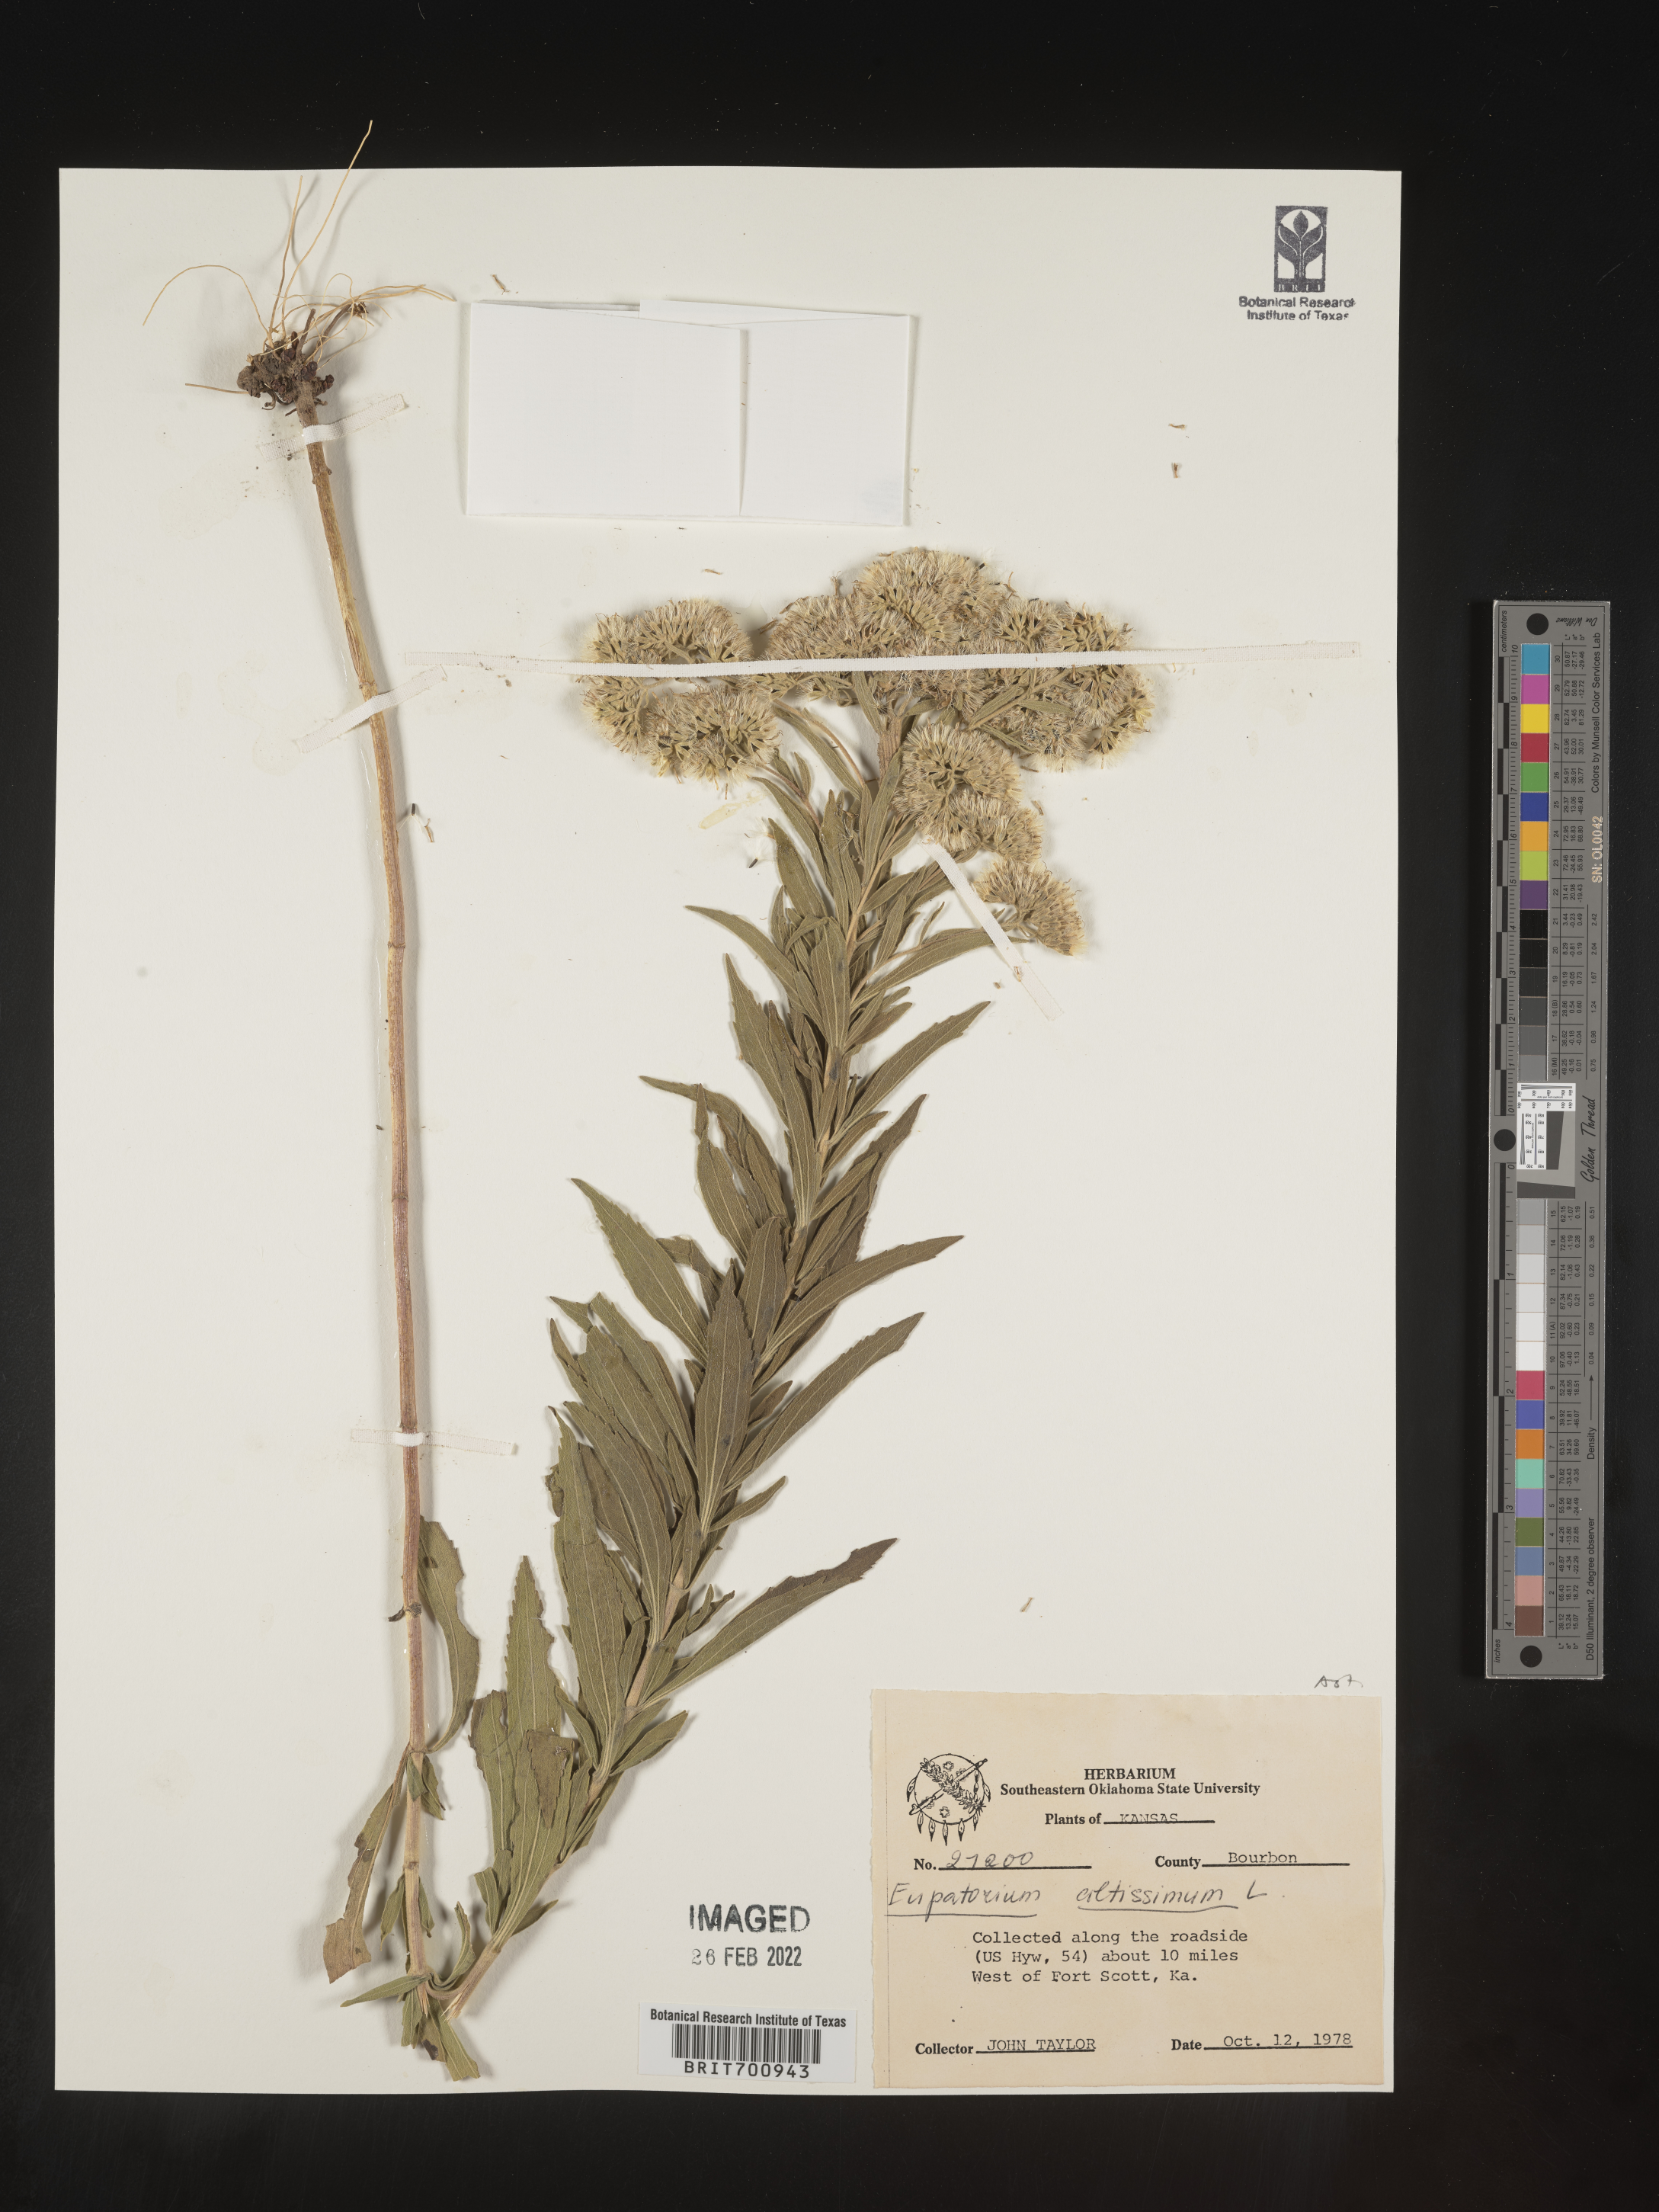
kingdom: Plantae
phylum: Tracheophyta
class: Magnoliopsida
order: Asterales
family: Asteraceae
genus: Eupatorium
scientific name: Eupatorium altissimum
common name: Tall thoroughwort
